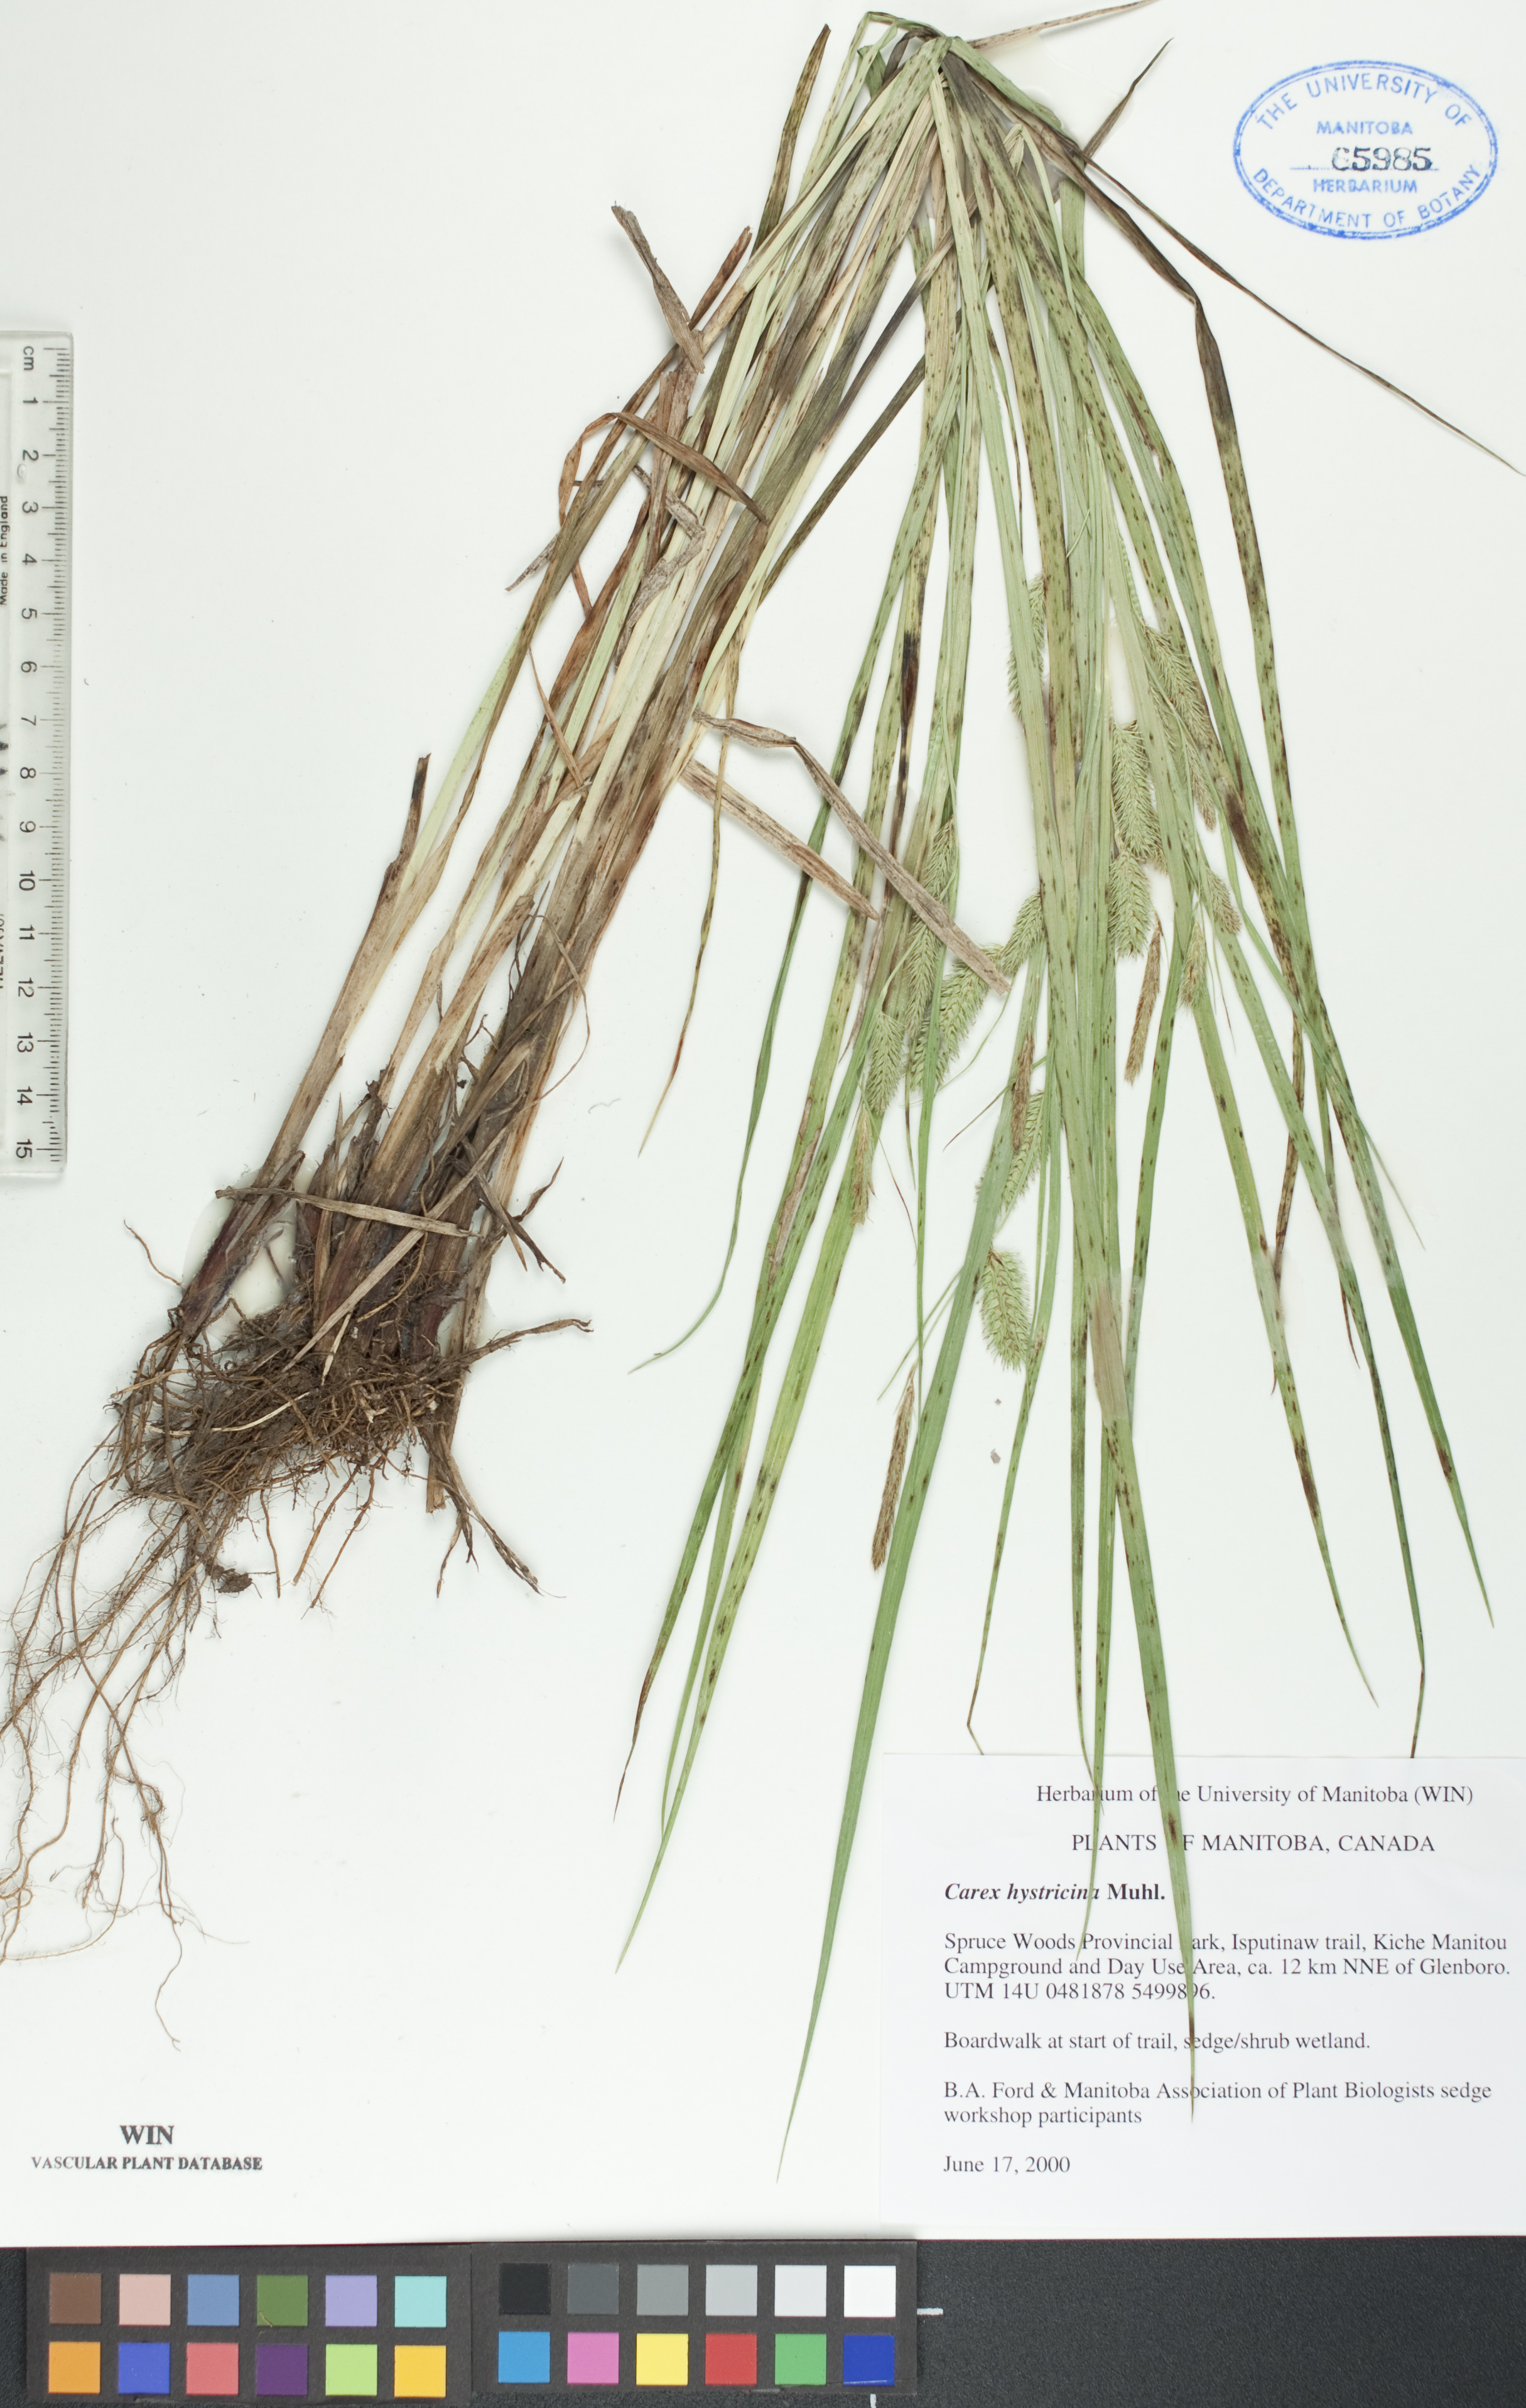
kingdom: Plantae
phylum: Tracheophyta
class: Liliopsida
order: Poales
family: Cyperaceae
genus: Carex
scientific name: Carex hystericina
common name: Bottlebrush sedge
